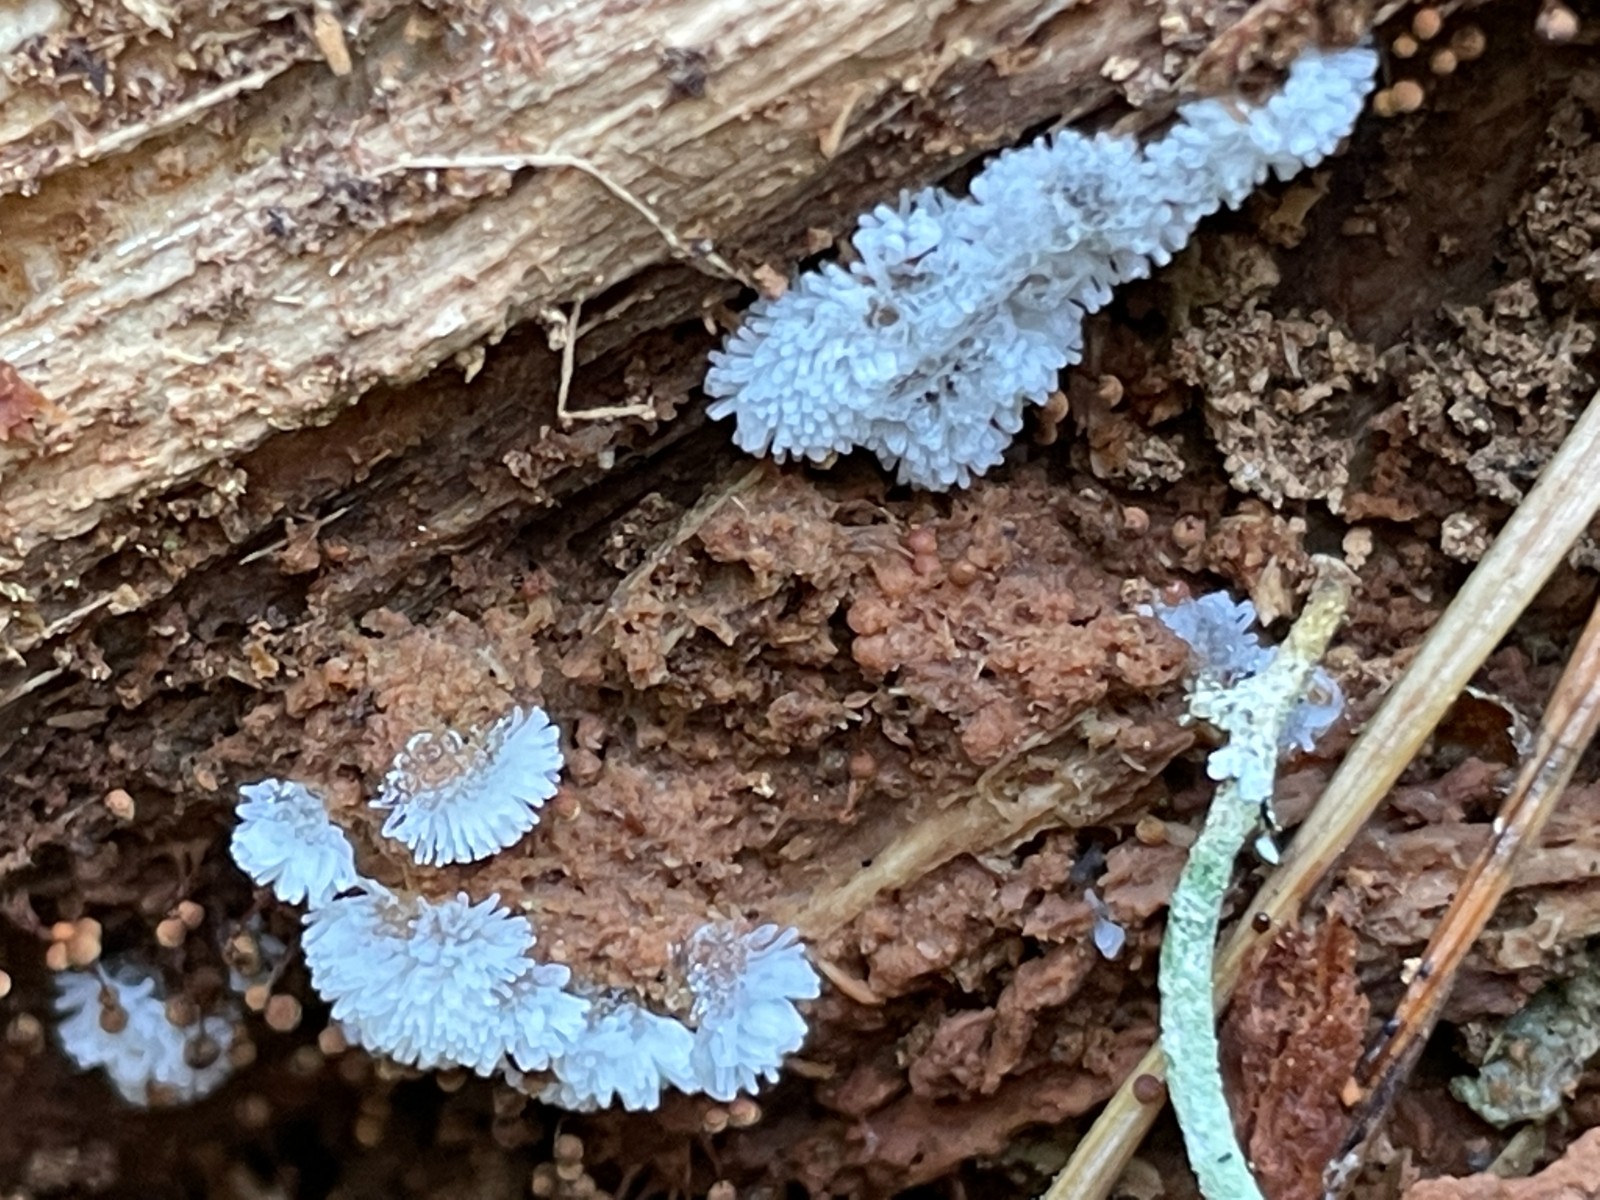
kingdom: Protozoa
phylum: Mycetozoa
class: Protosteliomycetes
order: Ceratiomyxales
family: Ceratiomyxaceae
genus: Ceratiomyxa
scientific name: Ceratiomyxa fruticulosa
